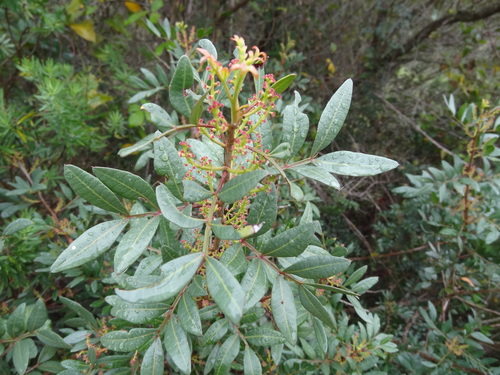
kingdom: Plantae
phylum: Tracheophyta
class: Magnoliopsida
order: Sapindales
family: Anacardiaceae
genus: Pistacia
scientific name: Pistacia lentiscus
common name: Lentisk
